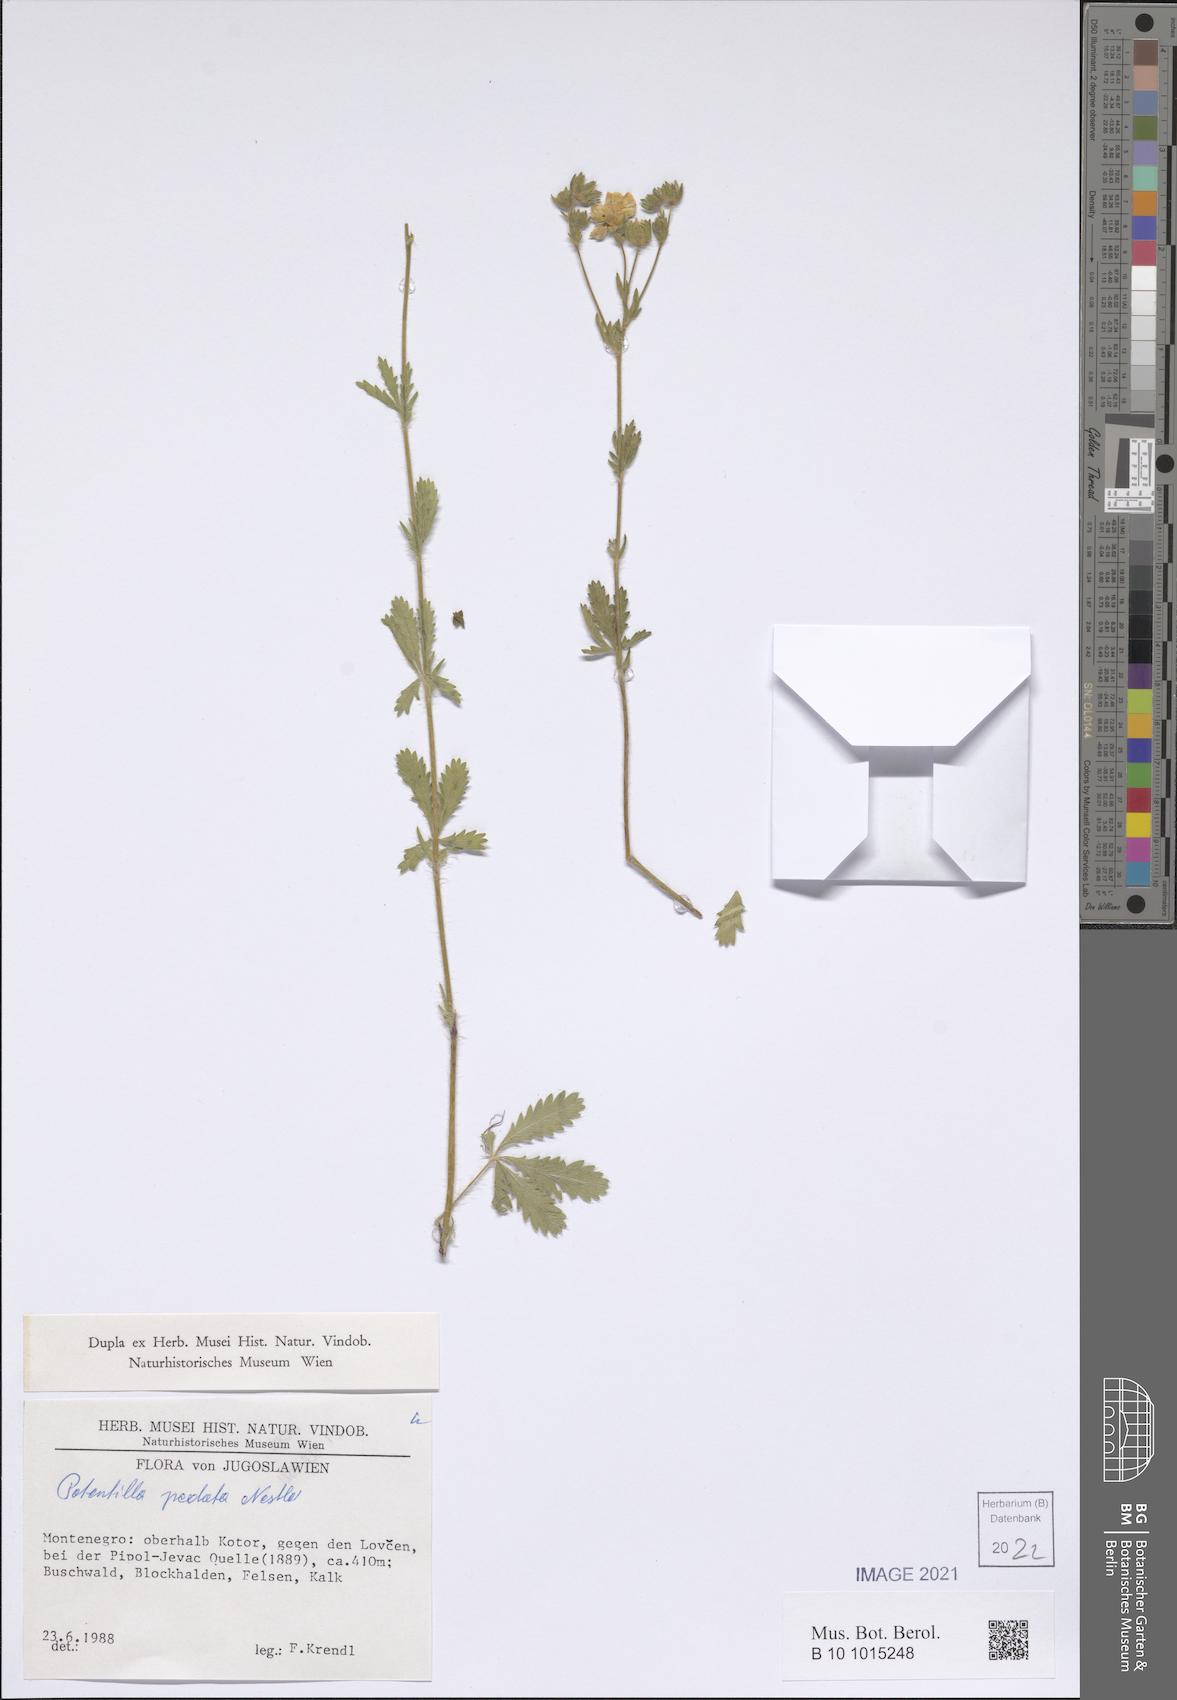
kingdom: Plantae
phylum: Tracheophyta
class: Magnoliopsida
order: Rosales
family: Rosaceae
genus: Potentilla
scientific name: Potentilla pedata
